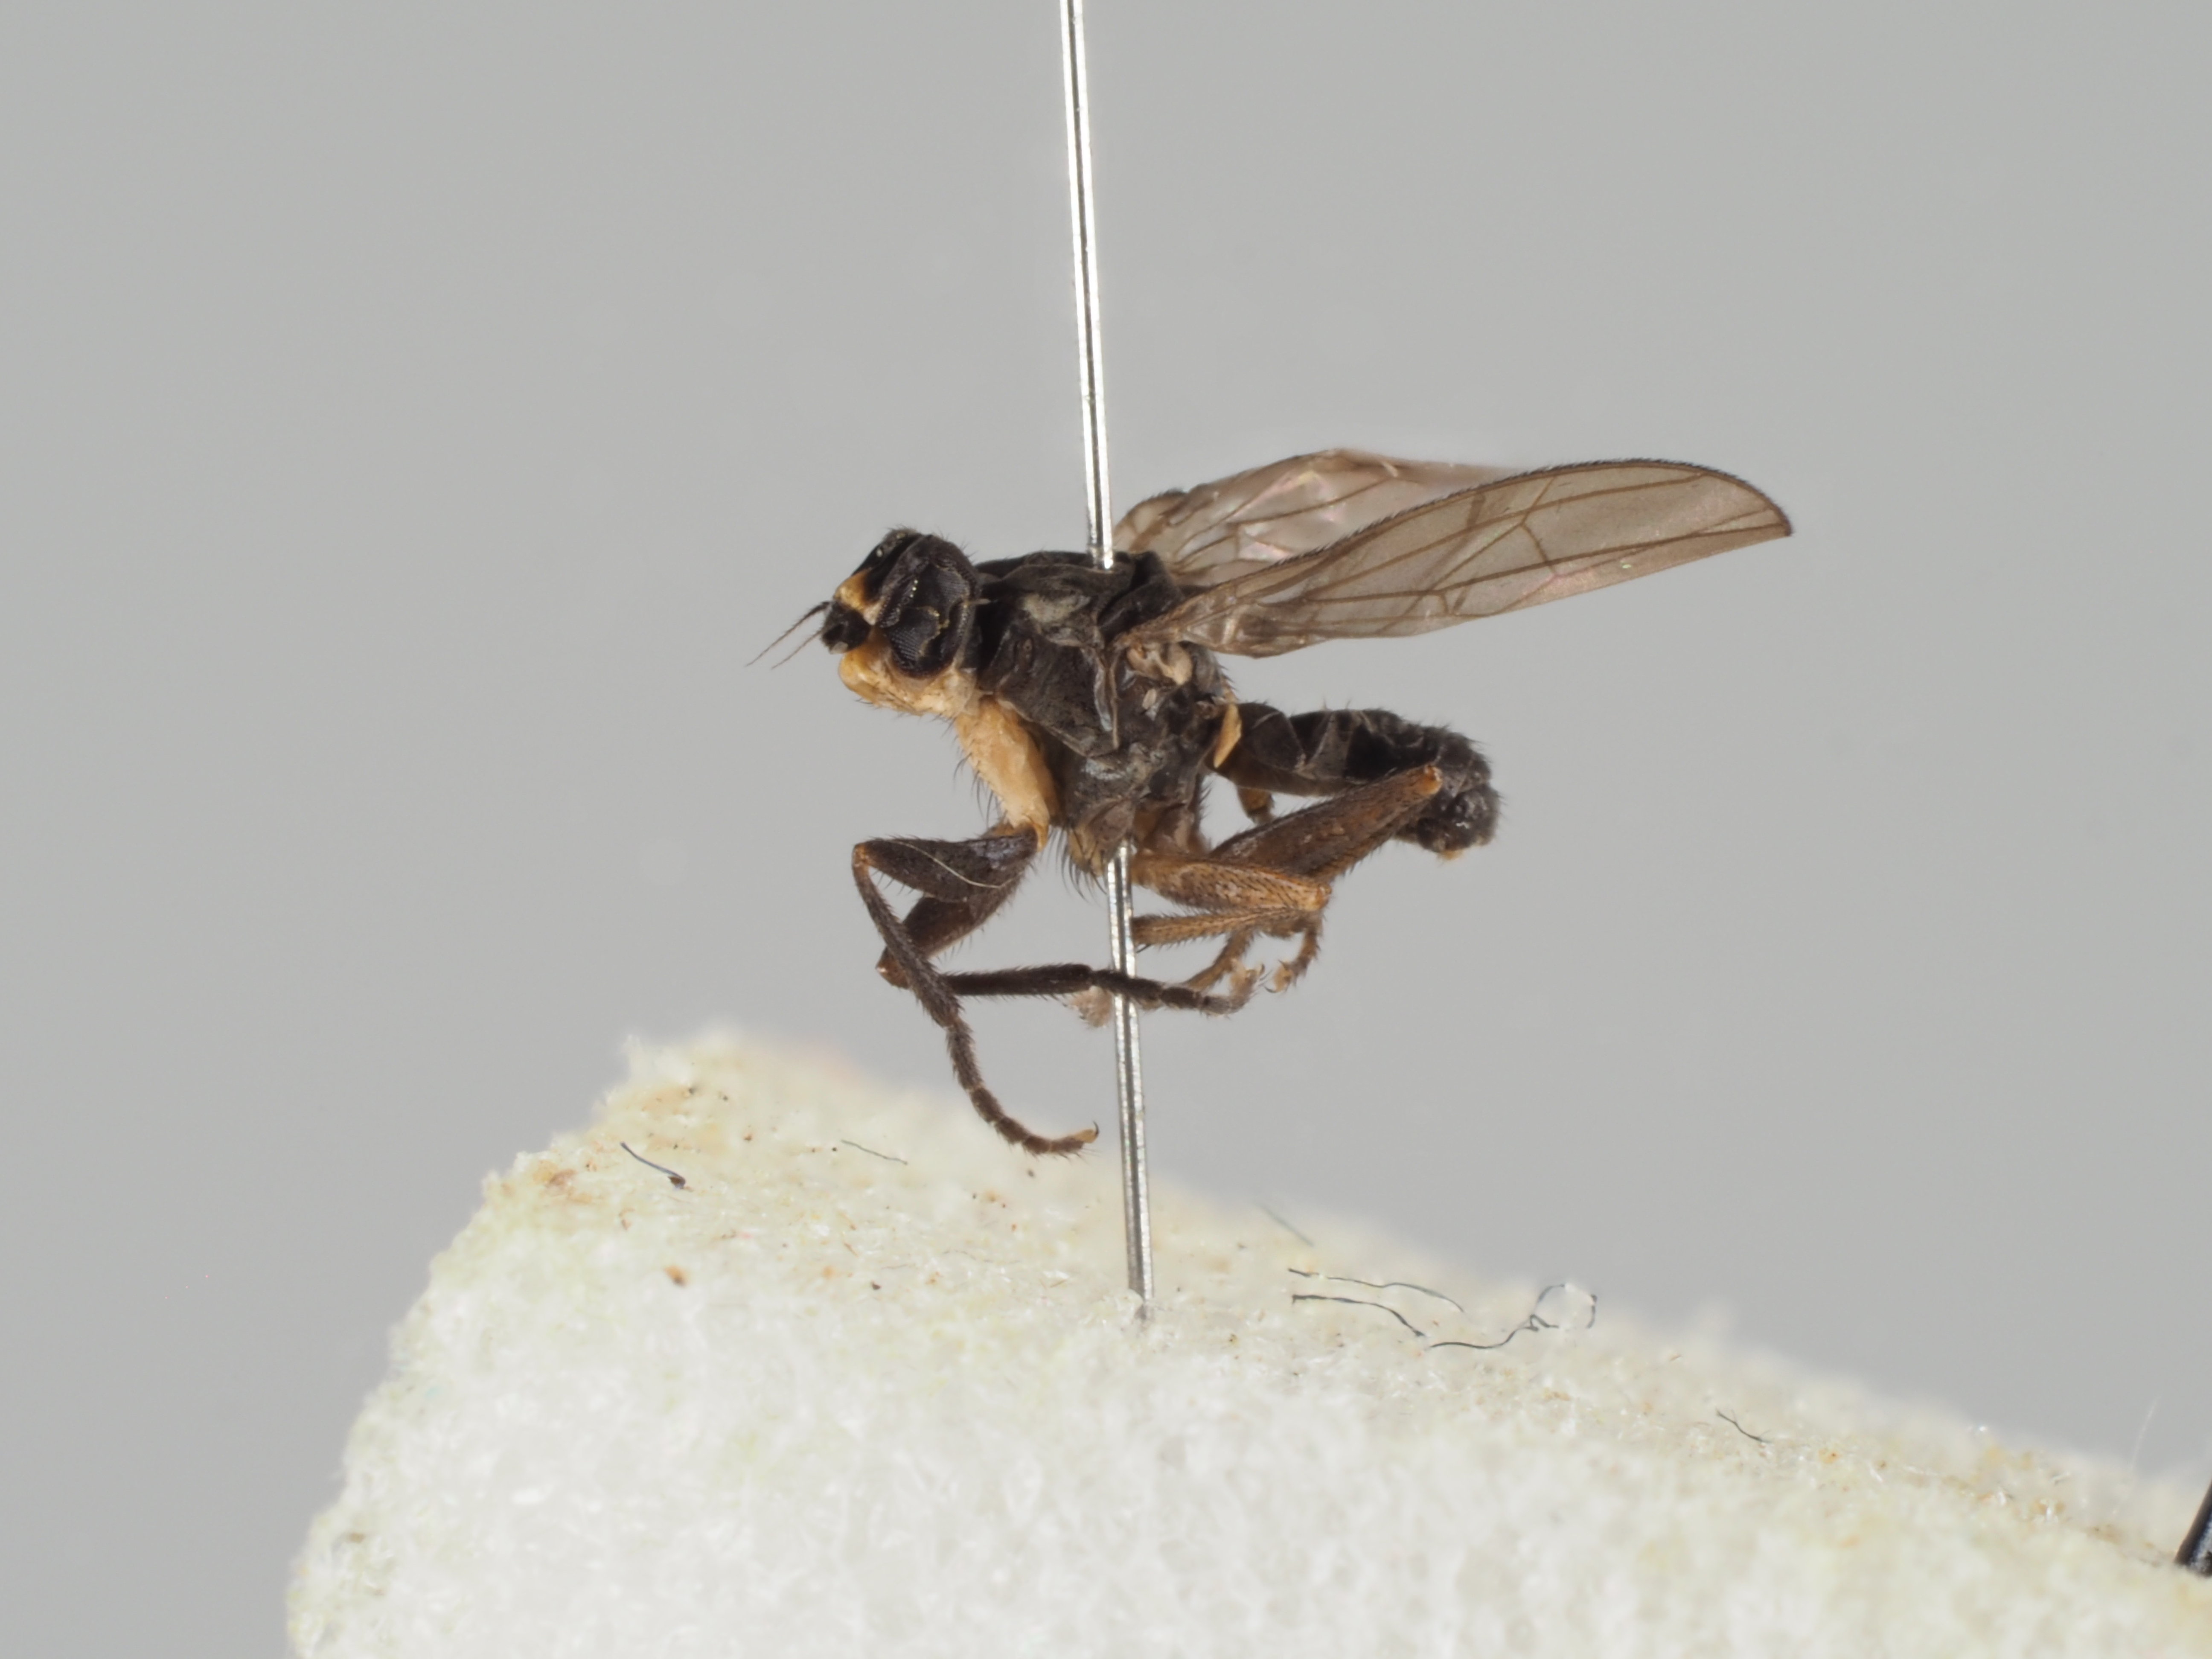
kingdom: Animalia
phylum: Arthropoda
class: Insecta
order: Diptera
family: Sciomyzidae
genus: Colobaea
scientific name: Colobaea nigroaristata
